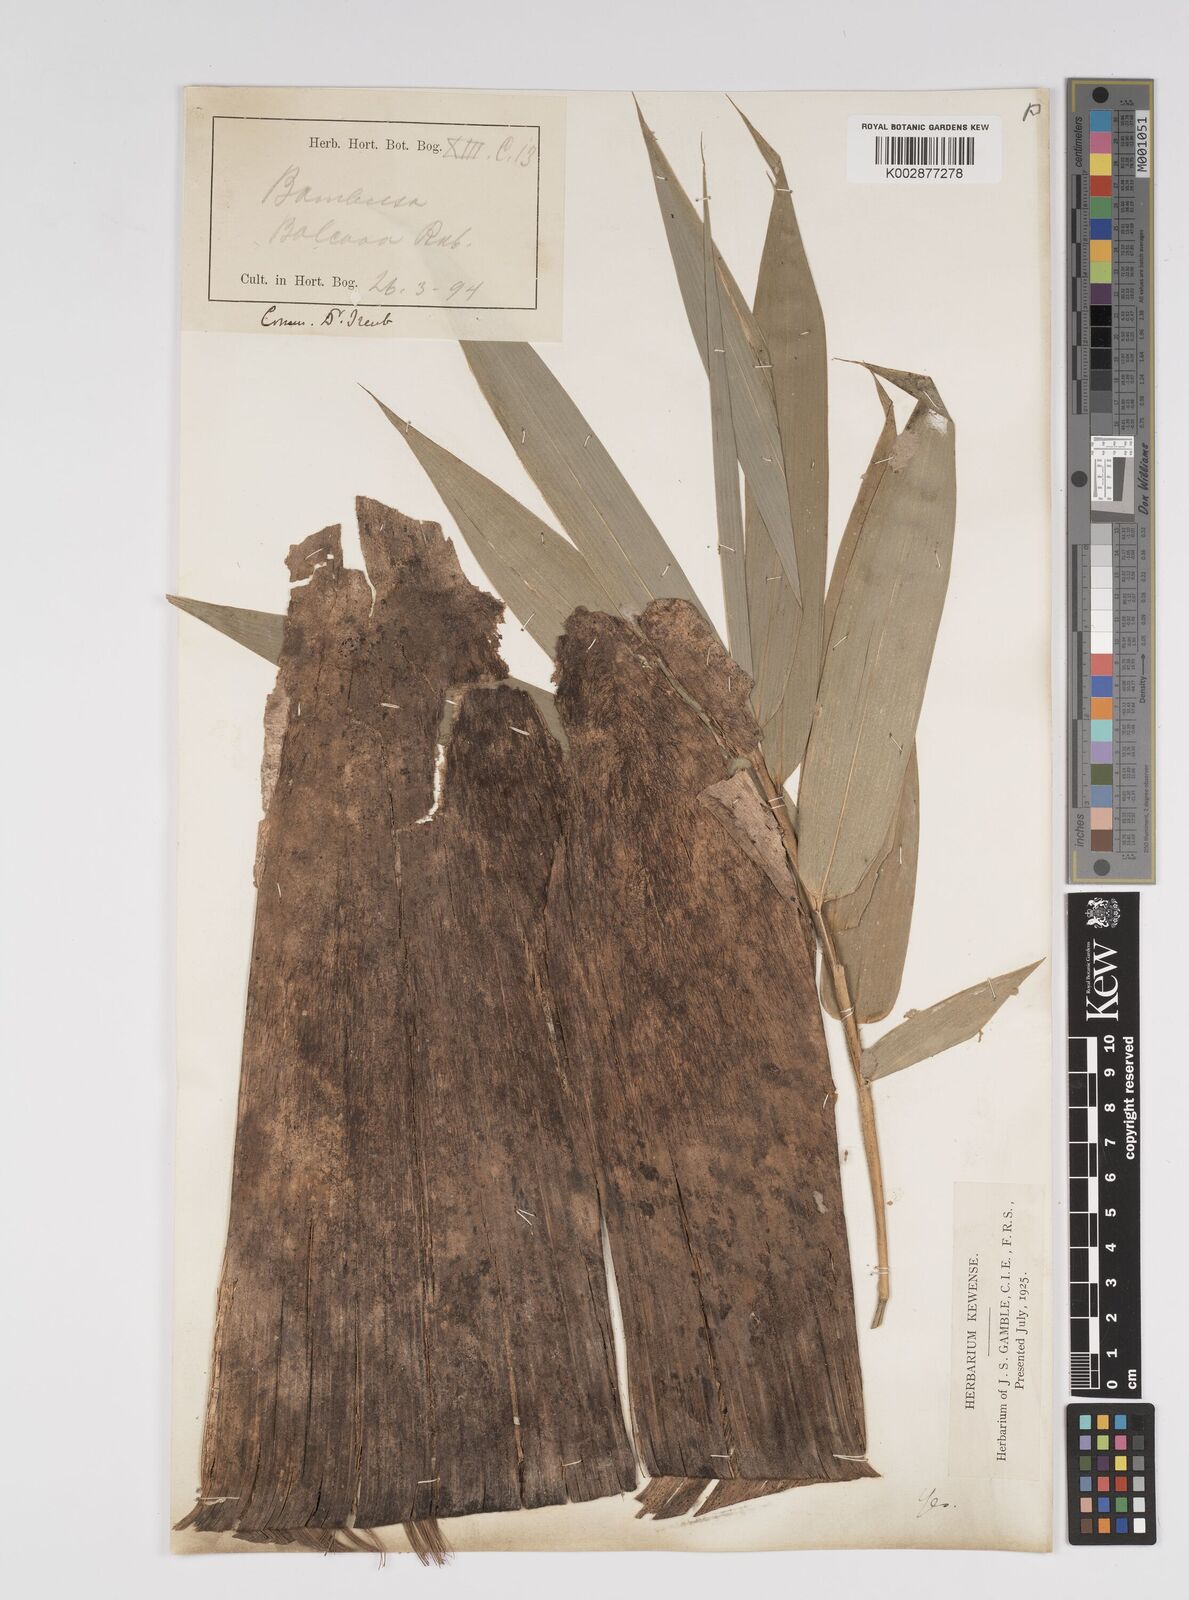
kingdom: Plantae
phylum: Tracheophyta
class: Liliopsida
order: Poales
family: Poaceae
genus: Bambusa
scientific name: Bambusa balcooa
